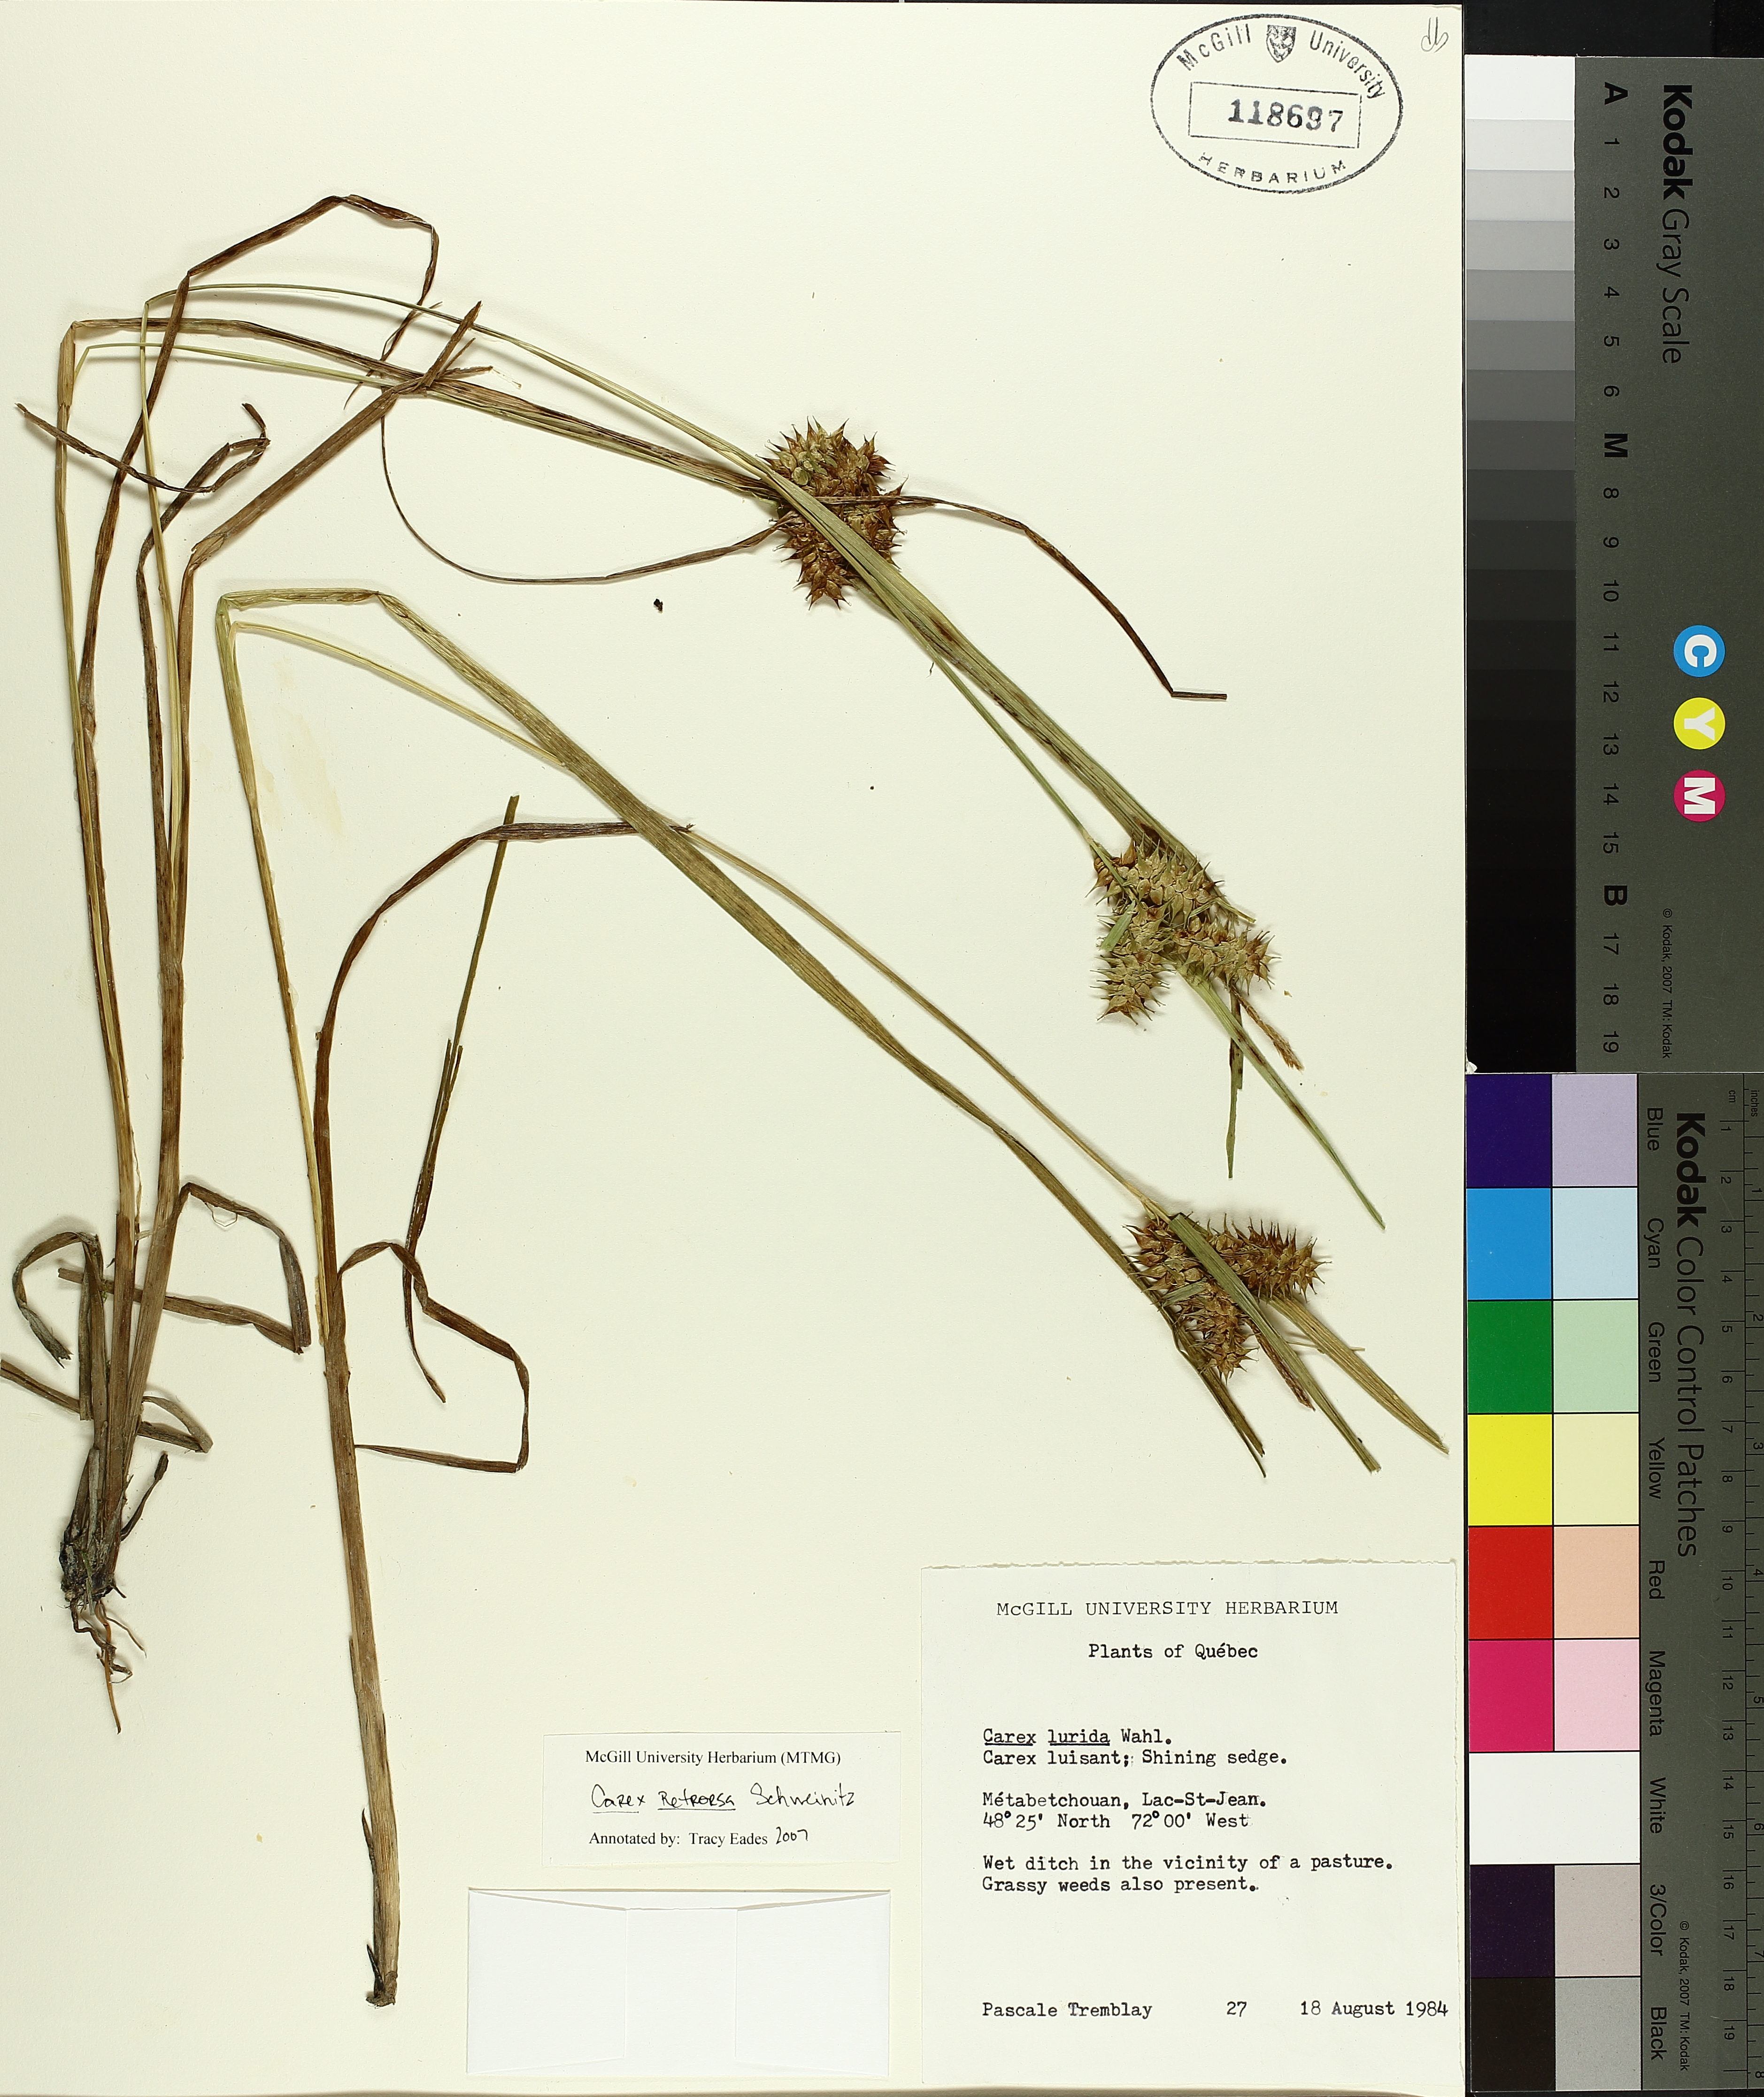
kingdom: Plantae
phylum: Tracheophyta
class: Liliopsida
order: Poales
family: Cyperaceae
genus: Carex
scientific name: Carex lurida
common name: Sallow sedge
